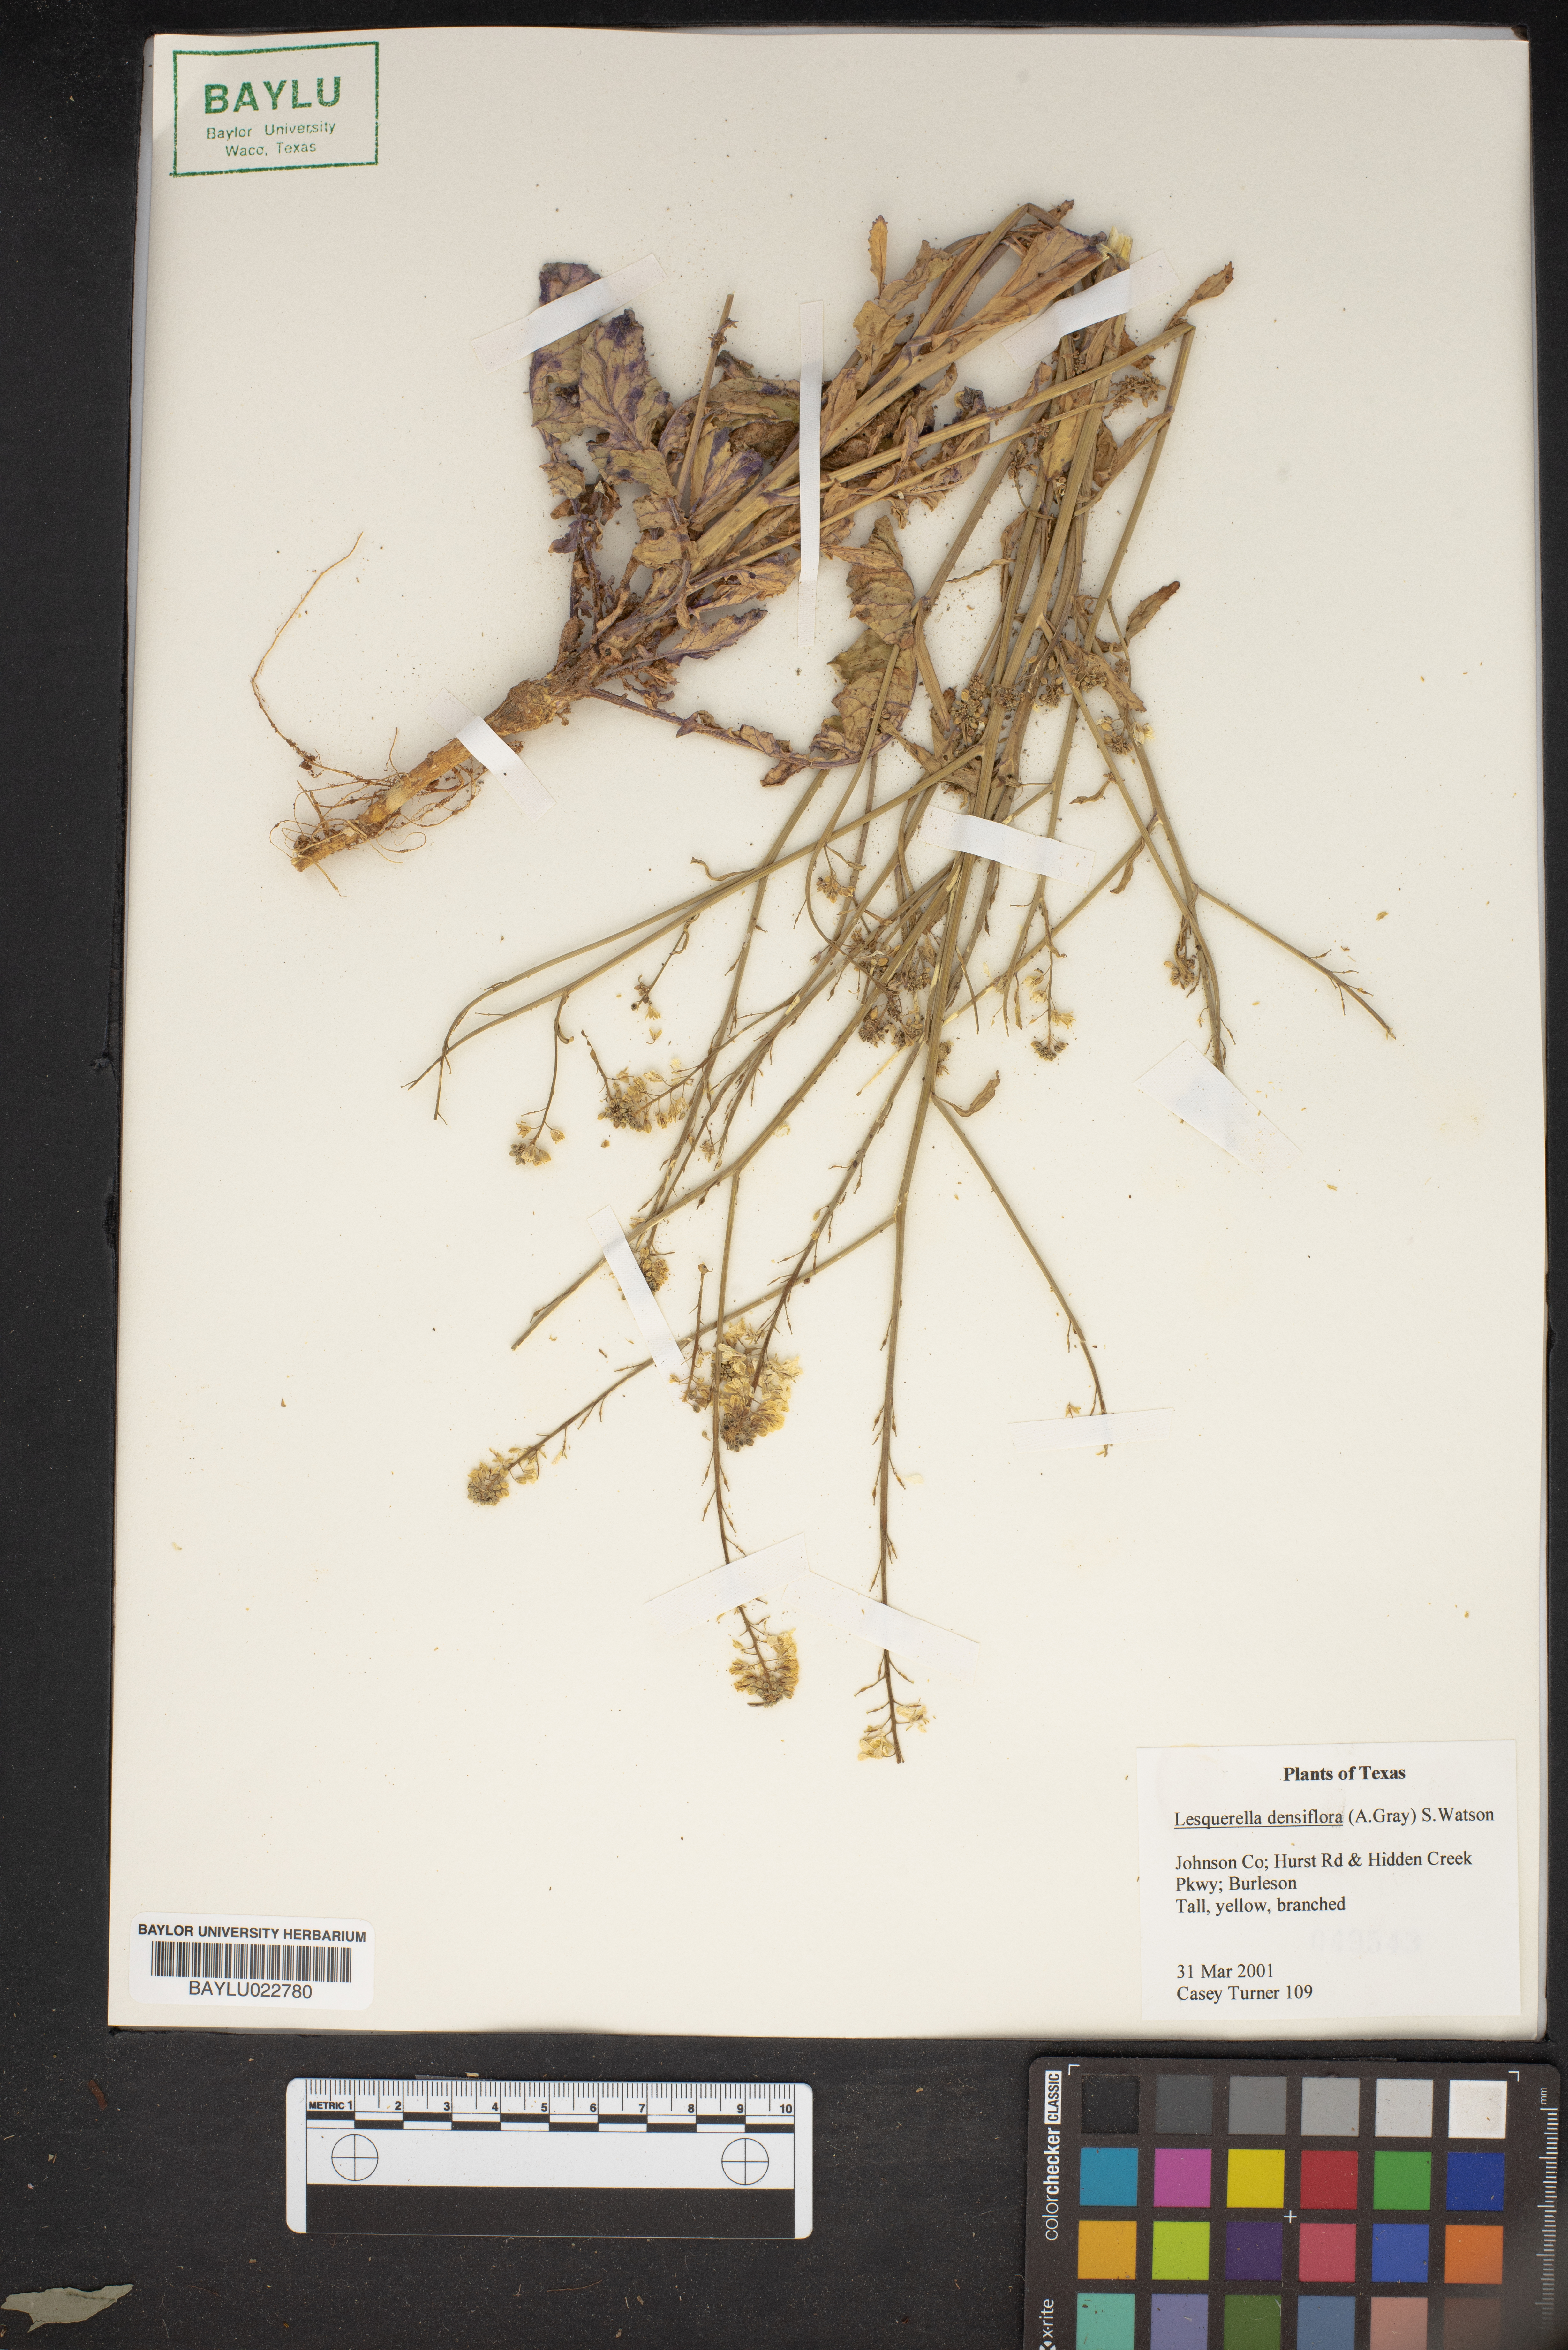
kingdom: Plantae
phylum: Tracheophyta
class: Magnoliopsida
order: Brassicales
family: Brassicaceae
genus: Physaria
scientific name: Physaria densiflora
